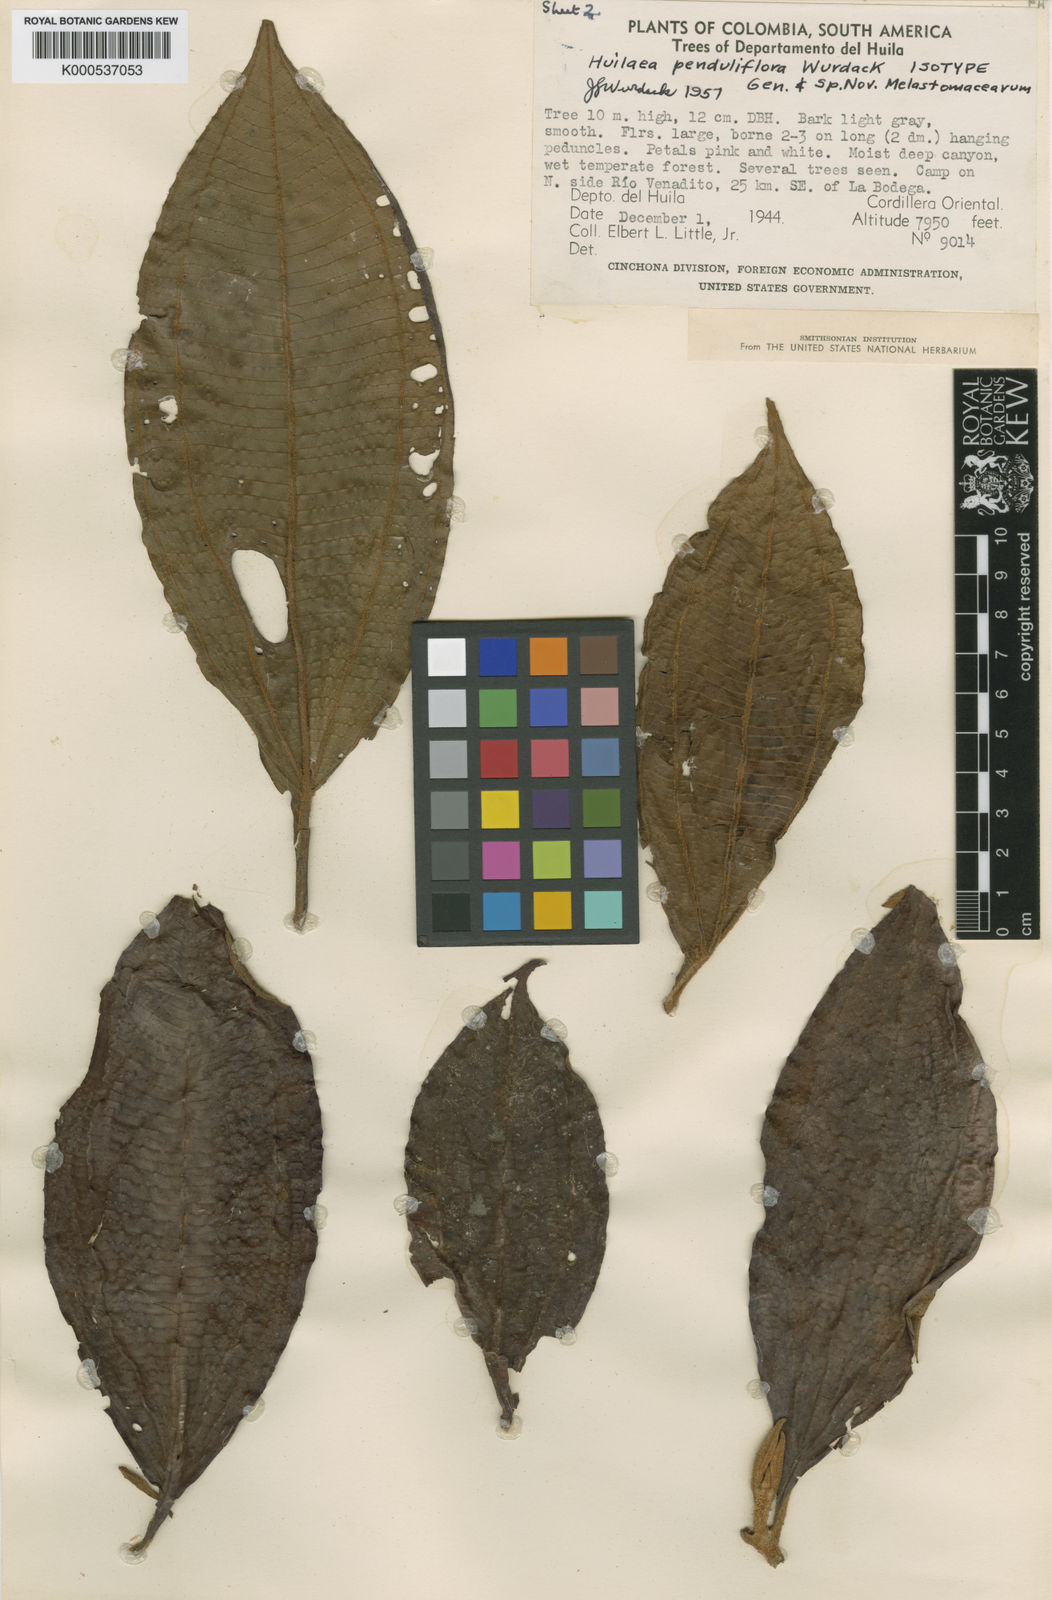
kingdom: Plantae
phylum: Tracheophyta
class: Magnoliopsida
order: Myrtales
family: Melastomataceae
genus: Chalybea
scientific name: Chalybea penduliflora
